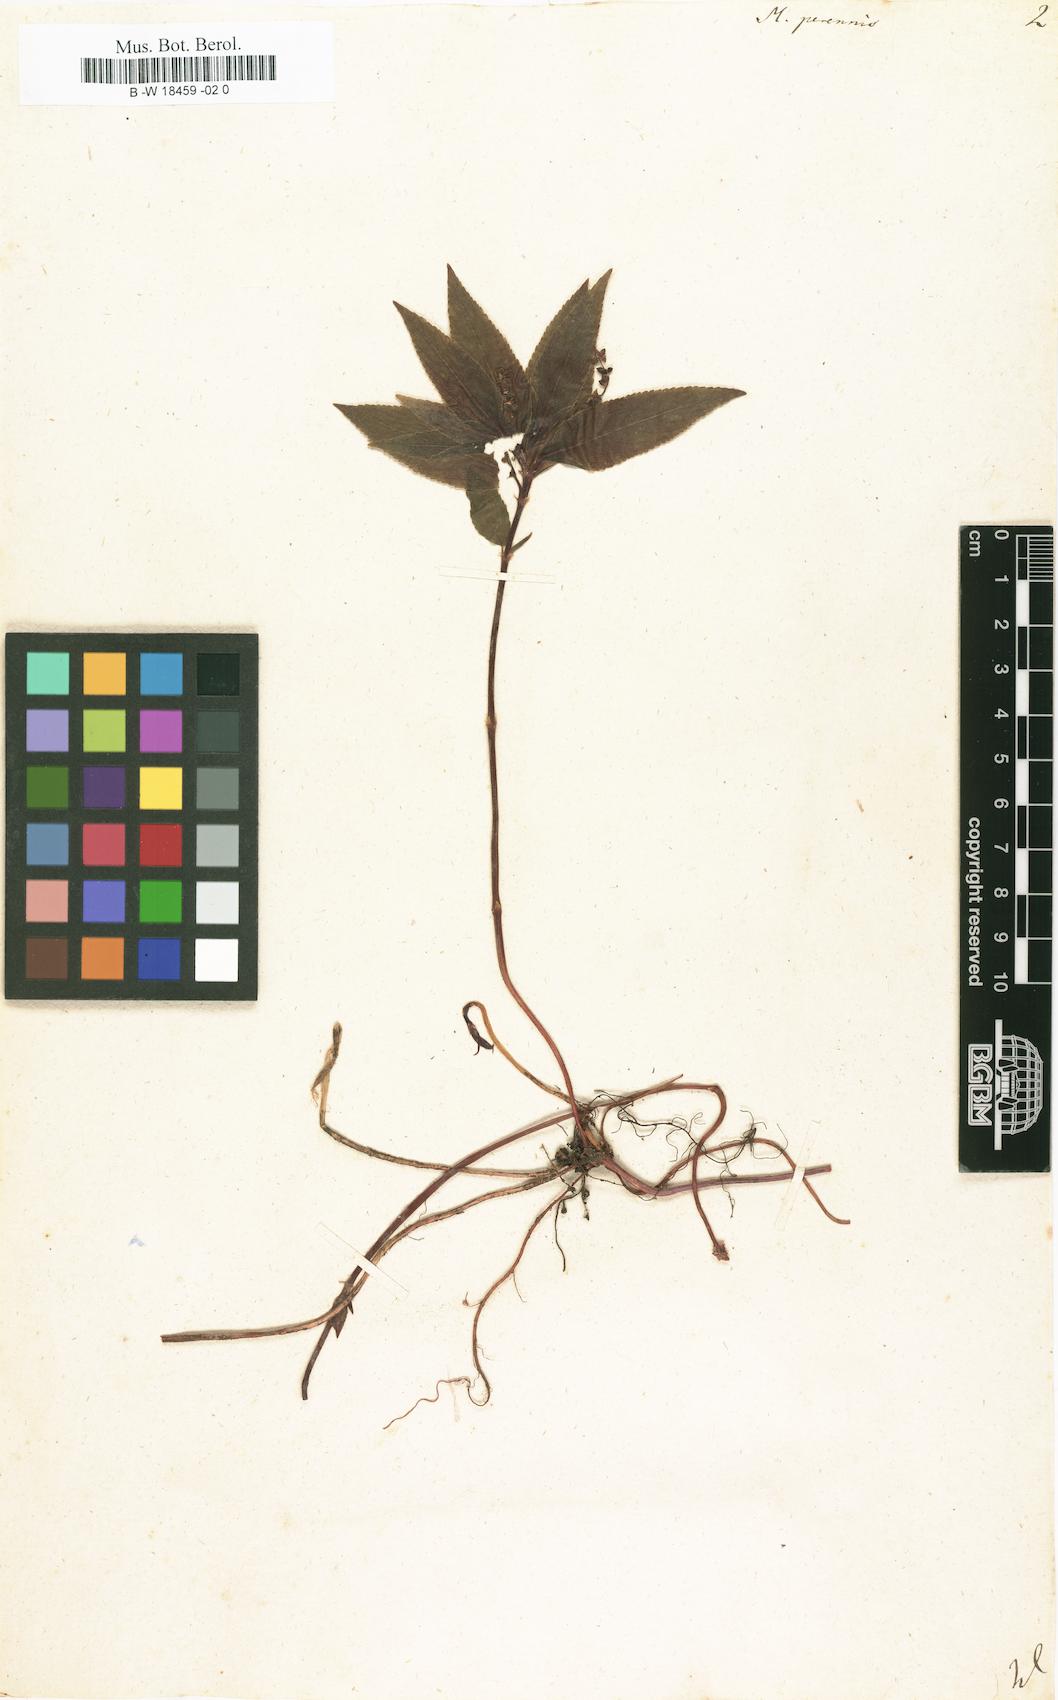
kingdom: Plantae
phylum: Tracheophyta
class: Magnoliopsida
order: Malpighiales
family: Euphorbiaceae
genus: Mercurialis
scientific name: Mercurialis perennis
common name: Dog mercury
